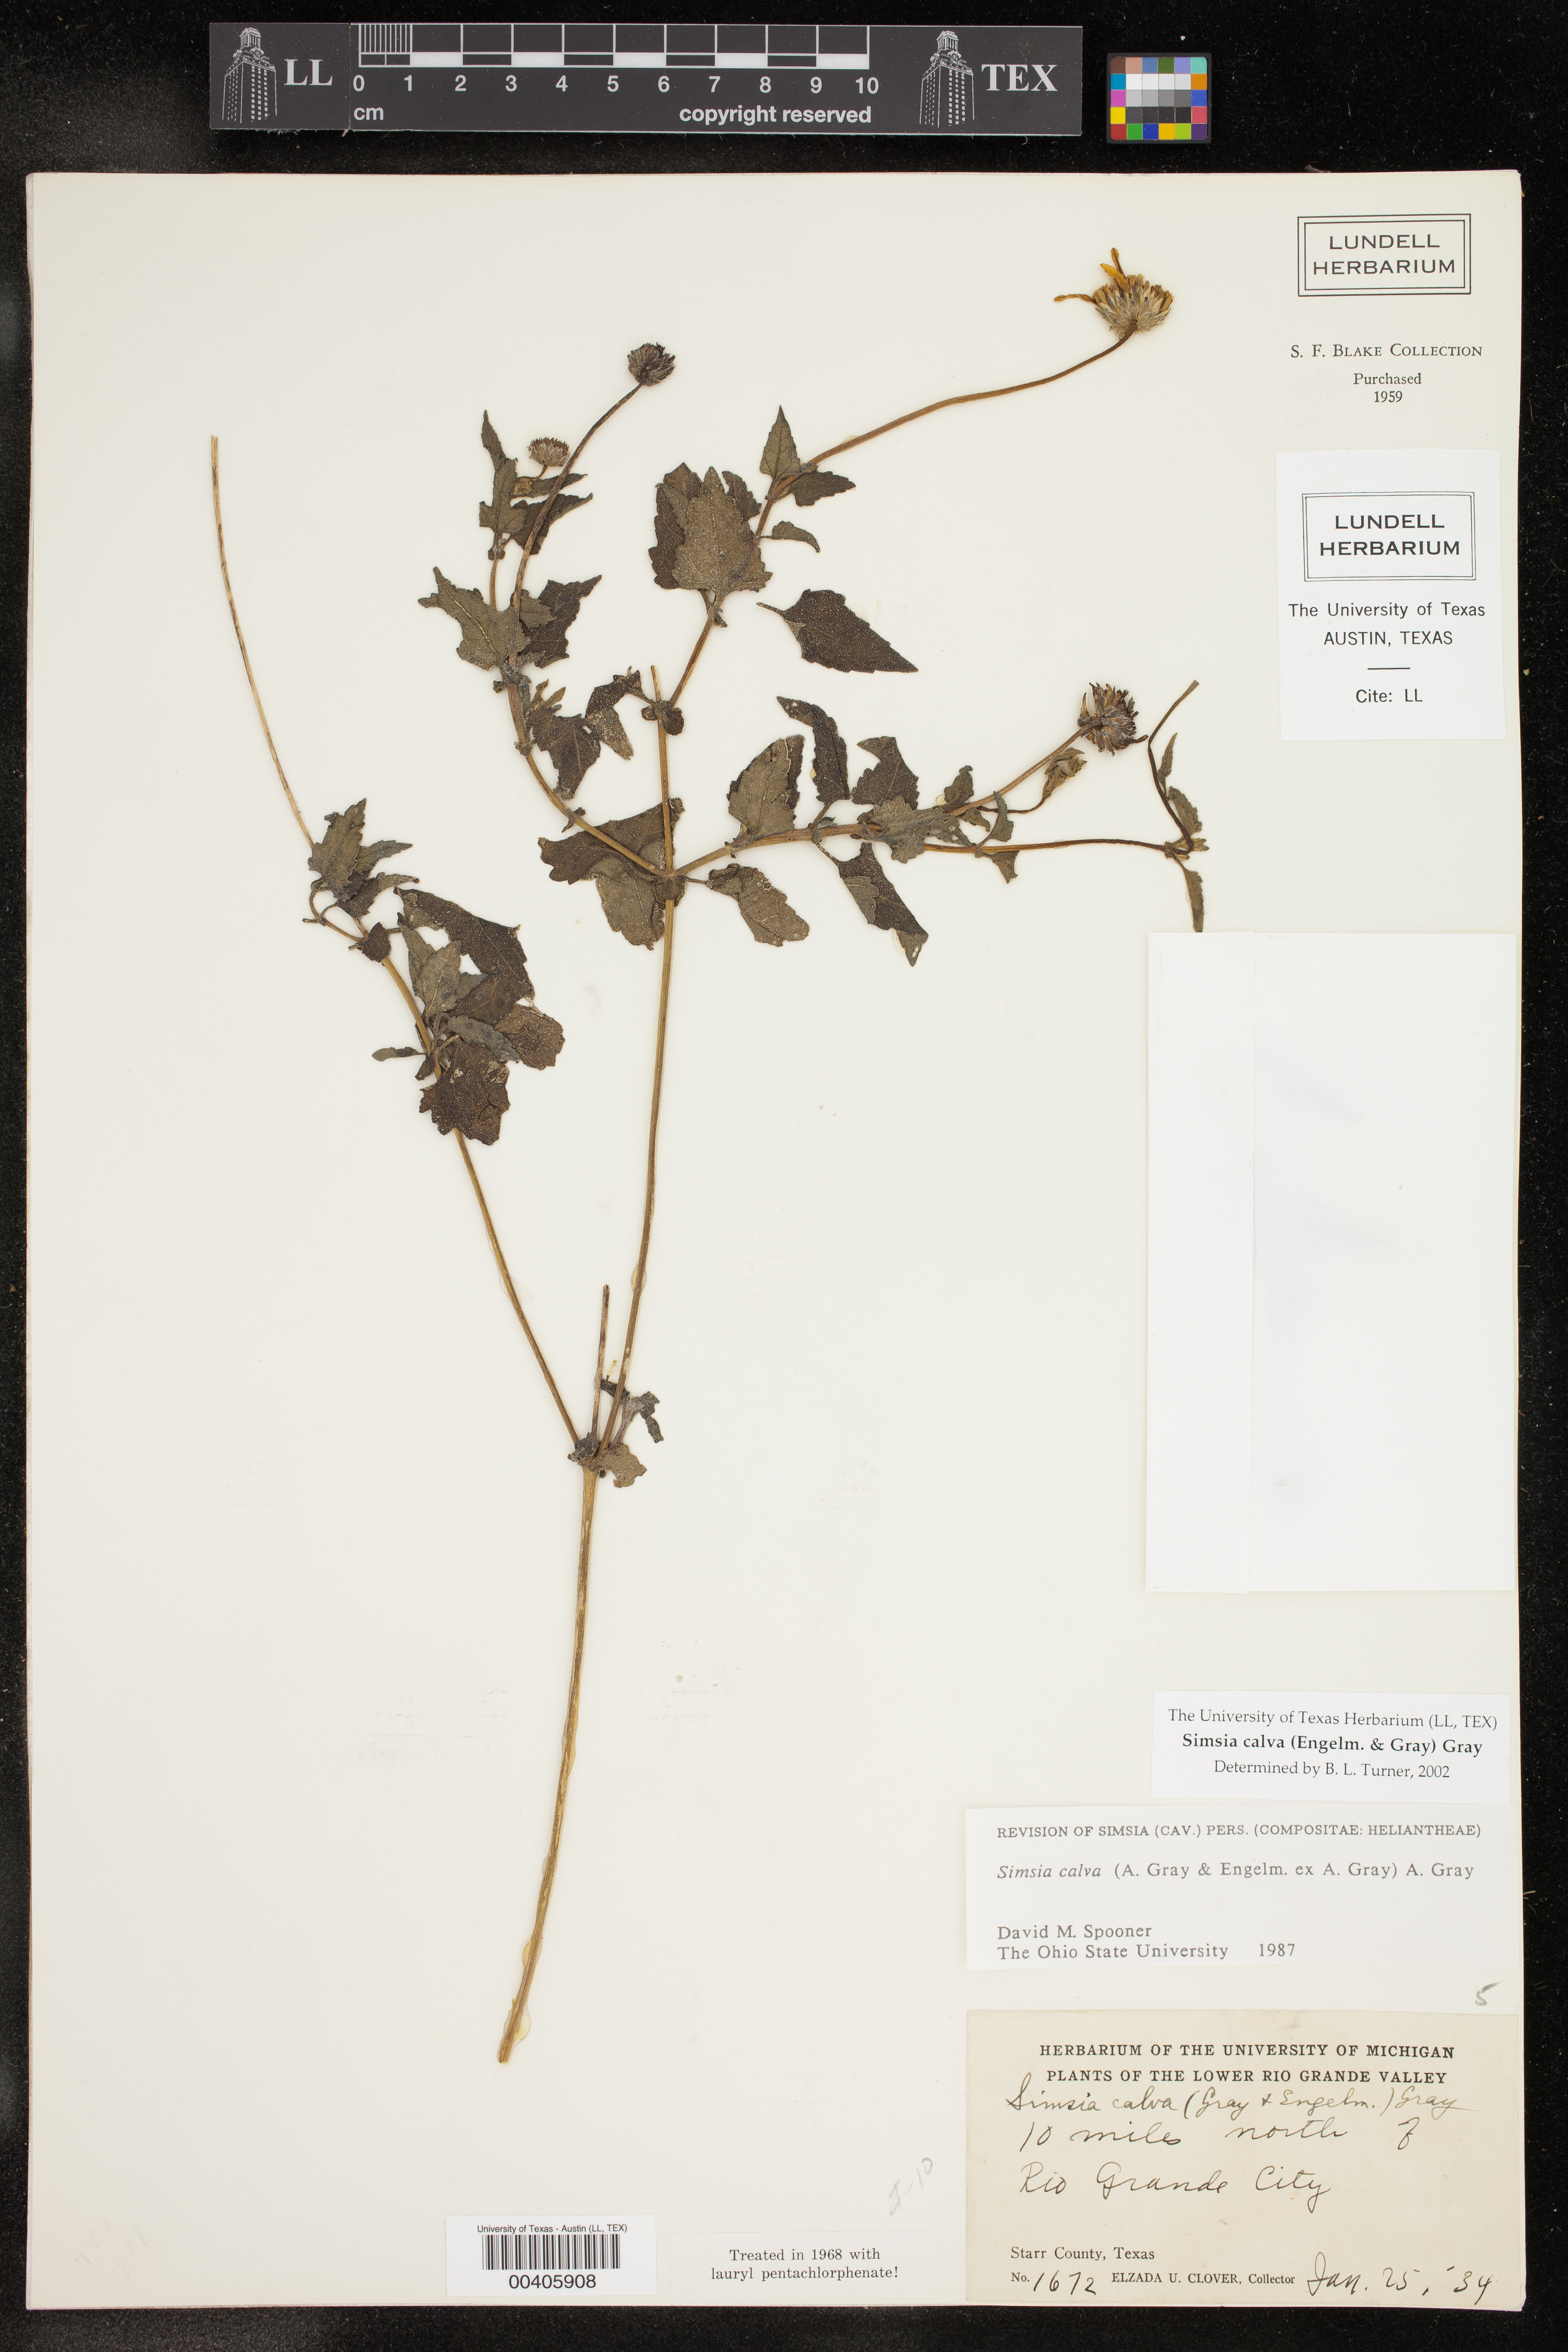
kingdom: Plantae
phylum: Tracheophyta
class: Magnoliopsida
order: Asterales
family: Asteraceae
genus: Simsia
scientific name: Simsia calva
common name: Awnless bush-sunflower
